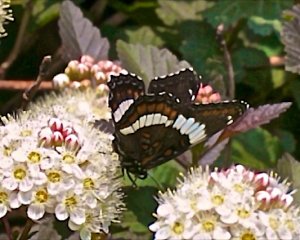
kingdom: Animalia
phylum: Arthropoda
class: Insecta
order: Lepidoptera
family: Nymphalidae
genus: Limenitis
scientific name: Limenitis arthemis
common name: Red-spotted Admiral
